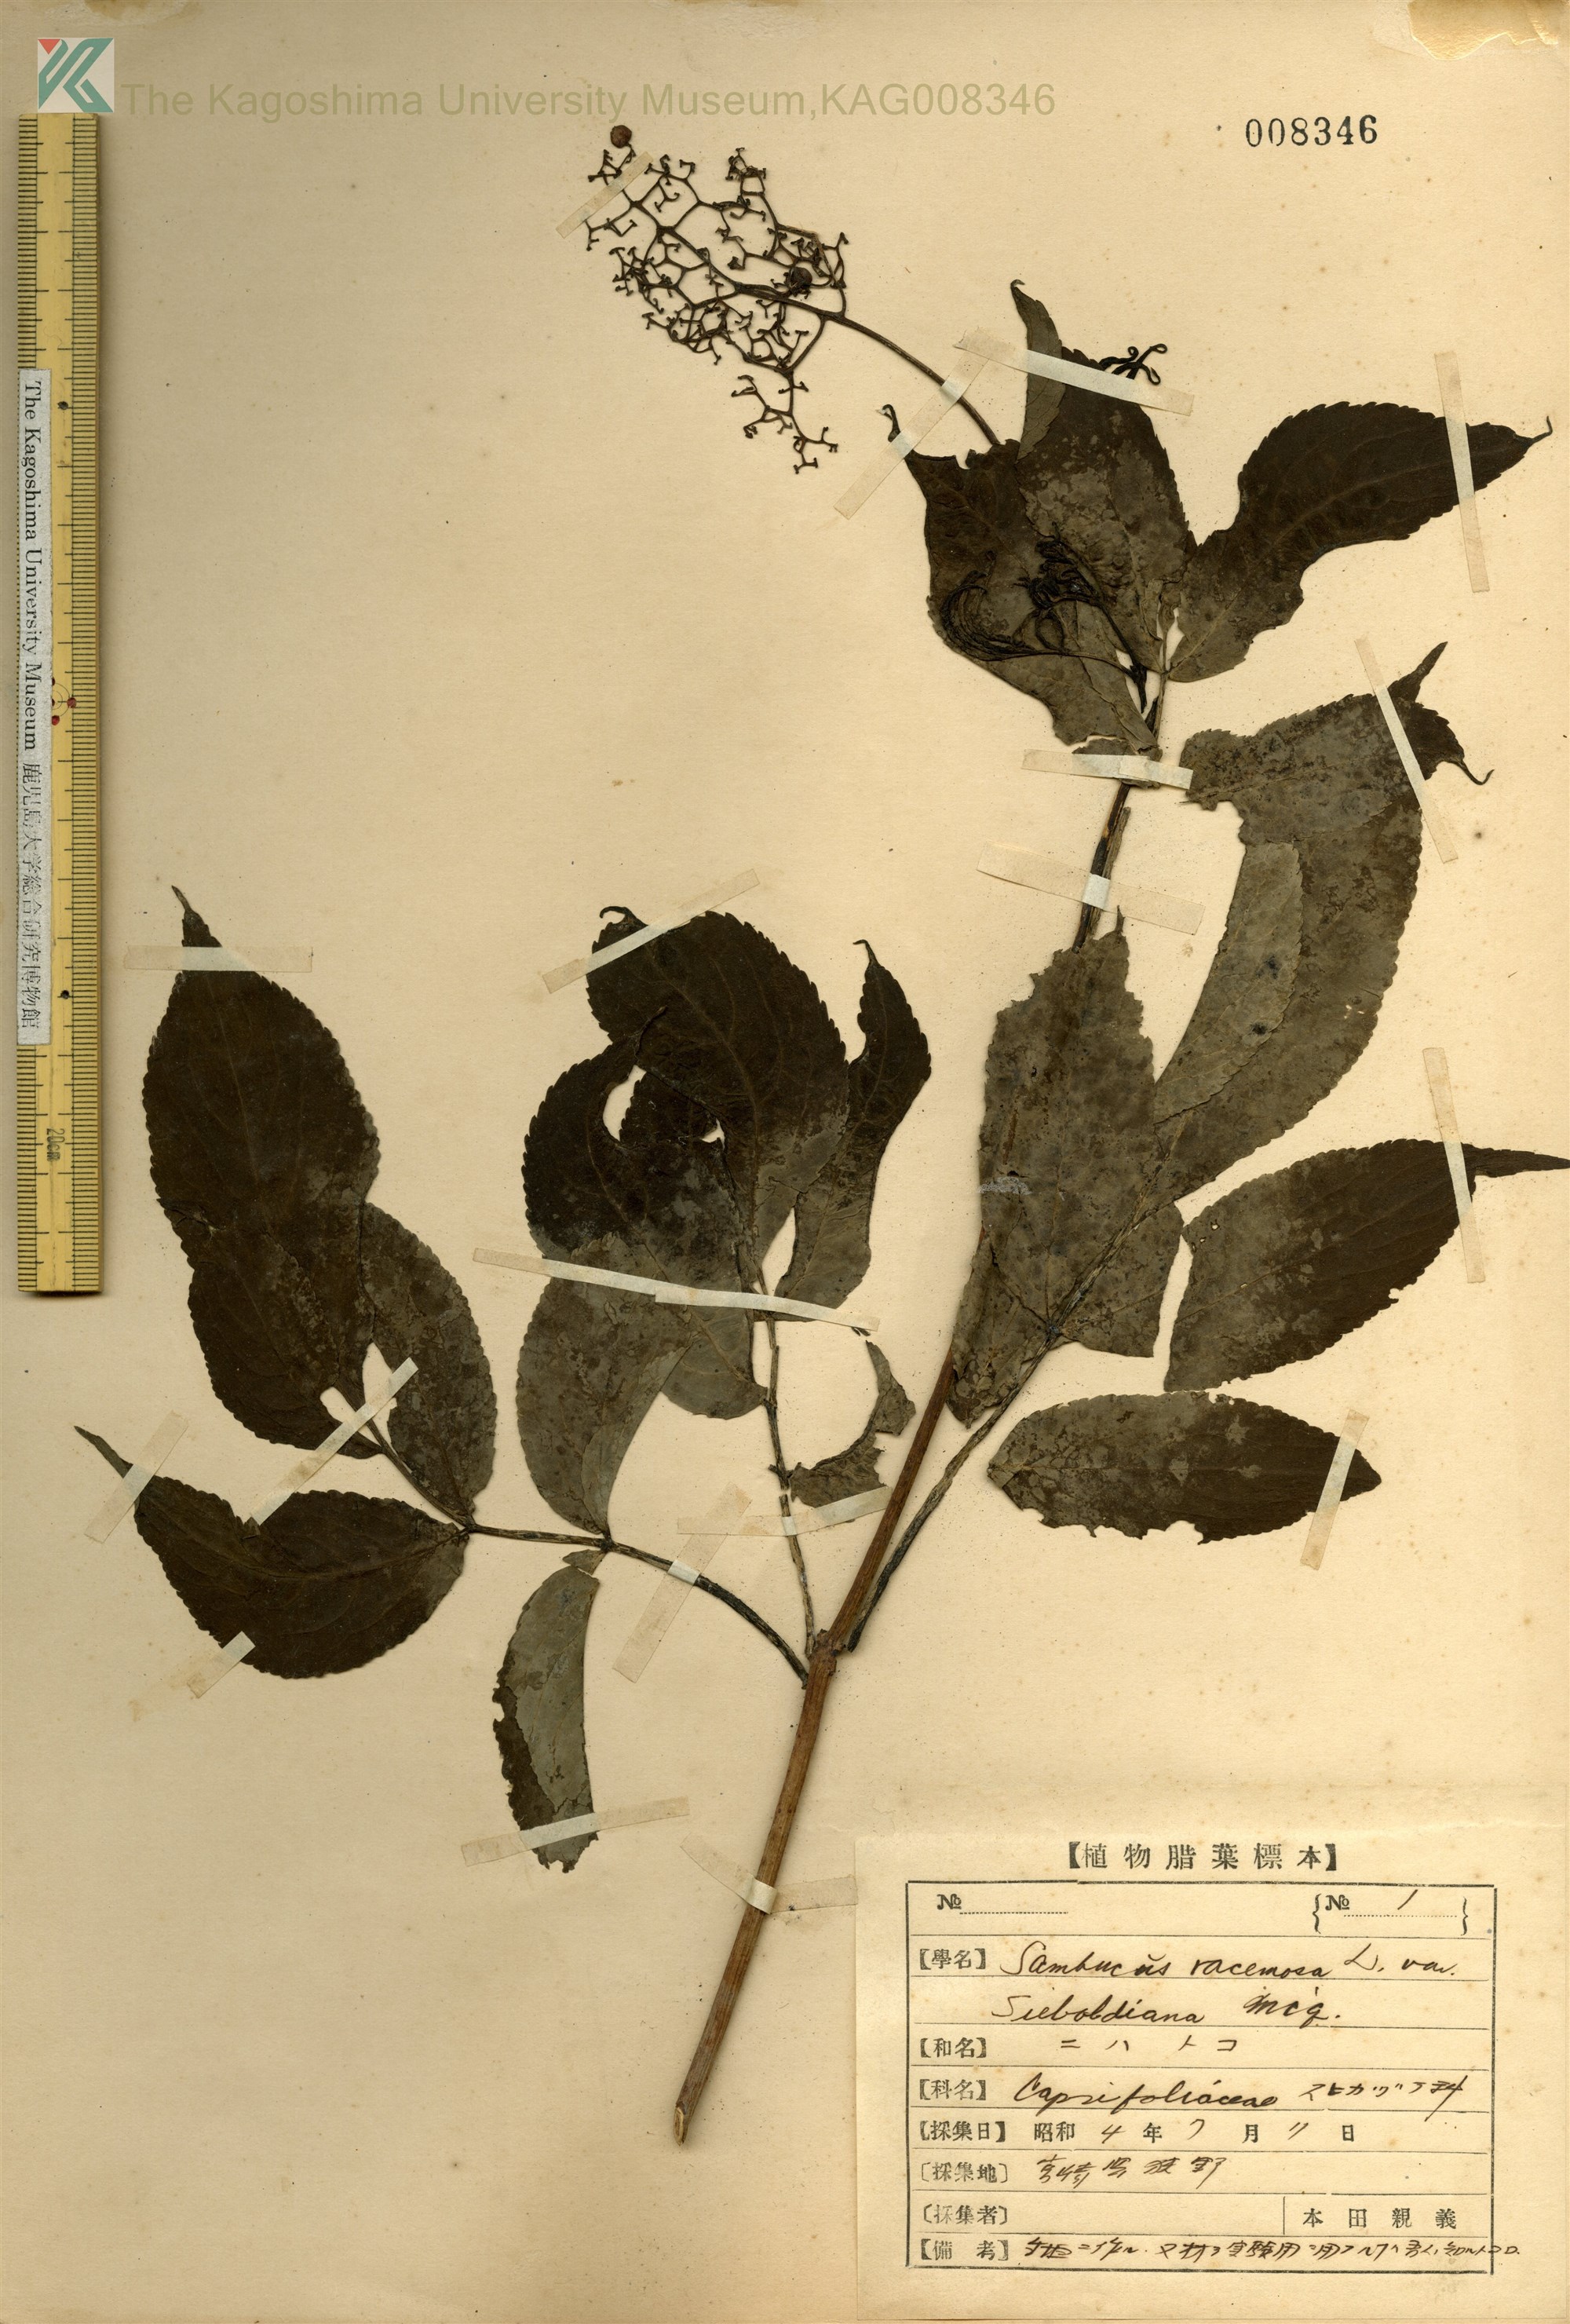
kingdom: Plantae
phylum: Tracheophyta
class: Magnoliopsida
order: Dipsacales
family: Viburnaceae
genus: Sambucus
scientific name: Sambucus sieboldiana
